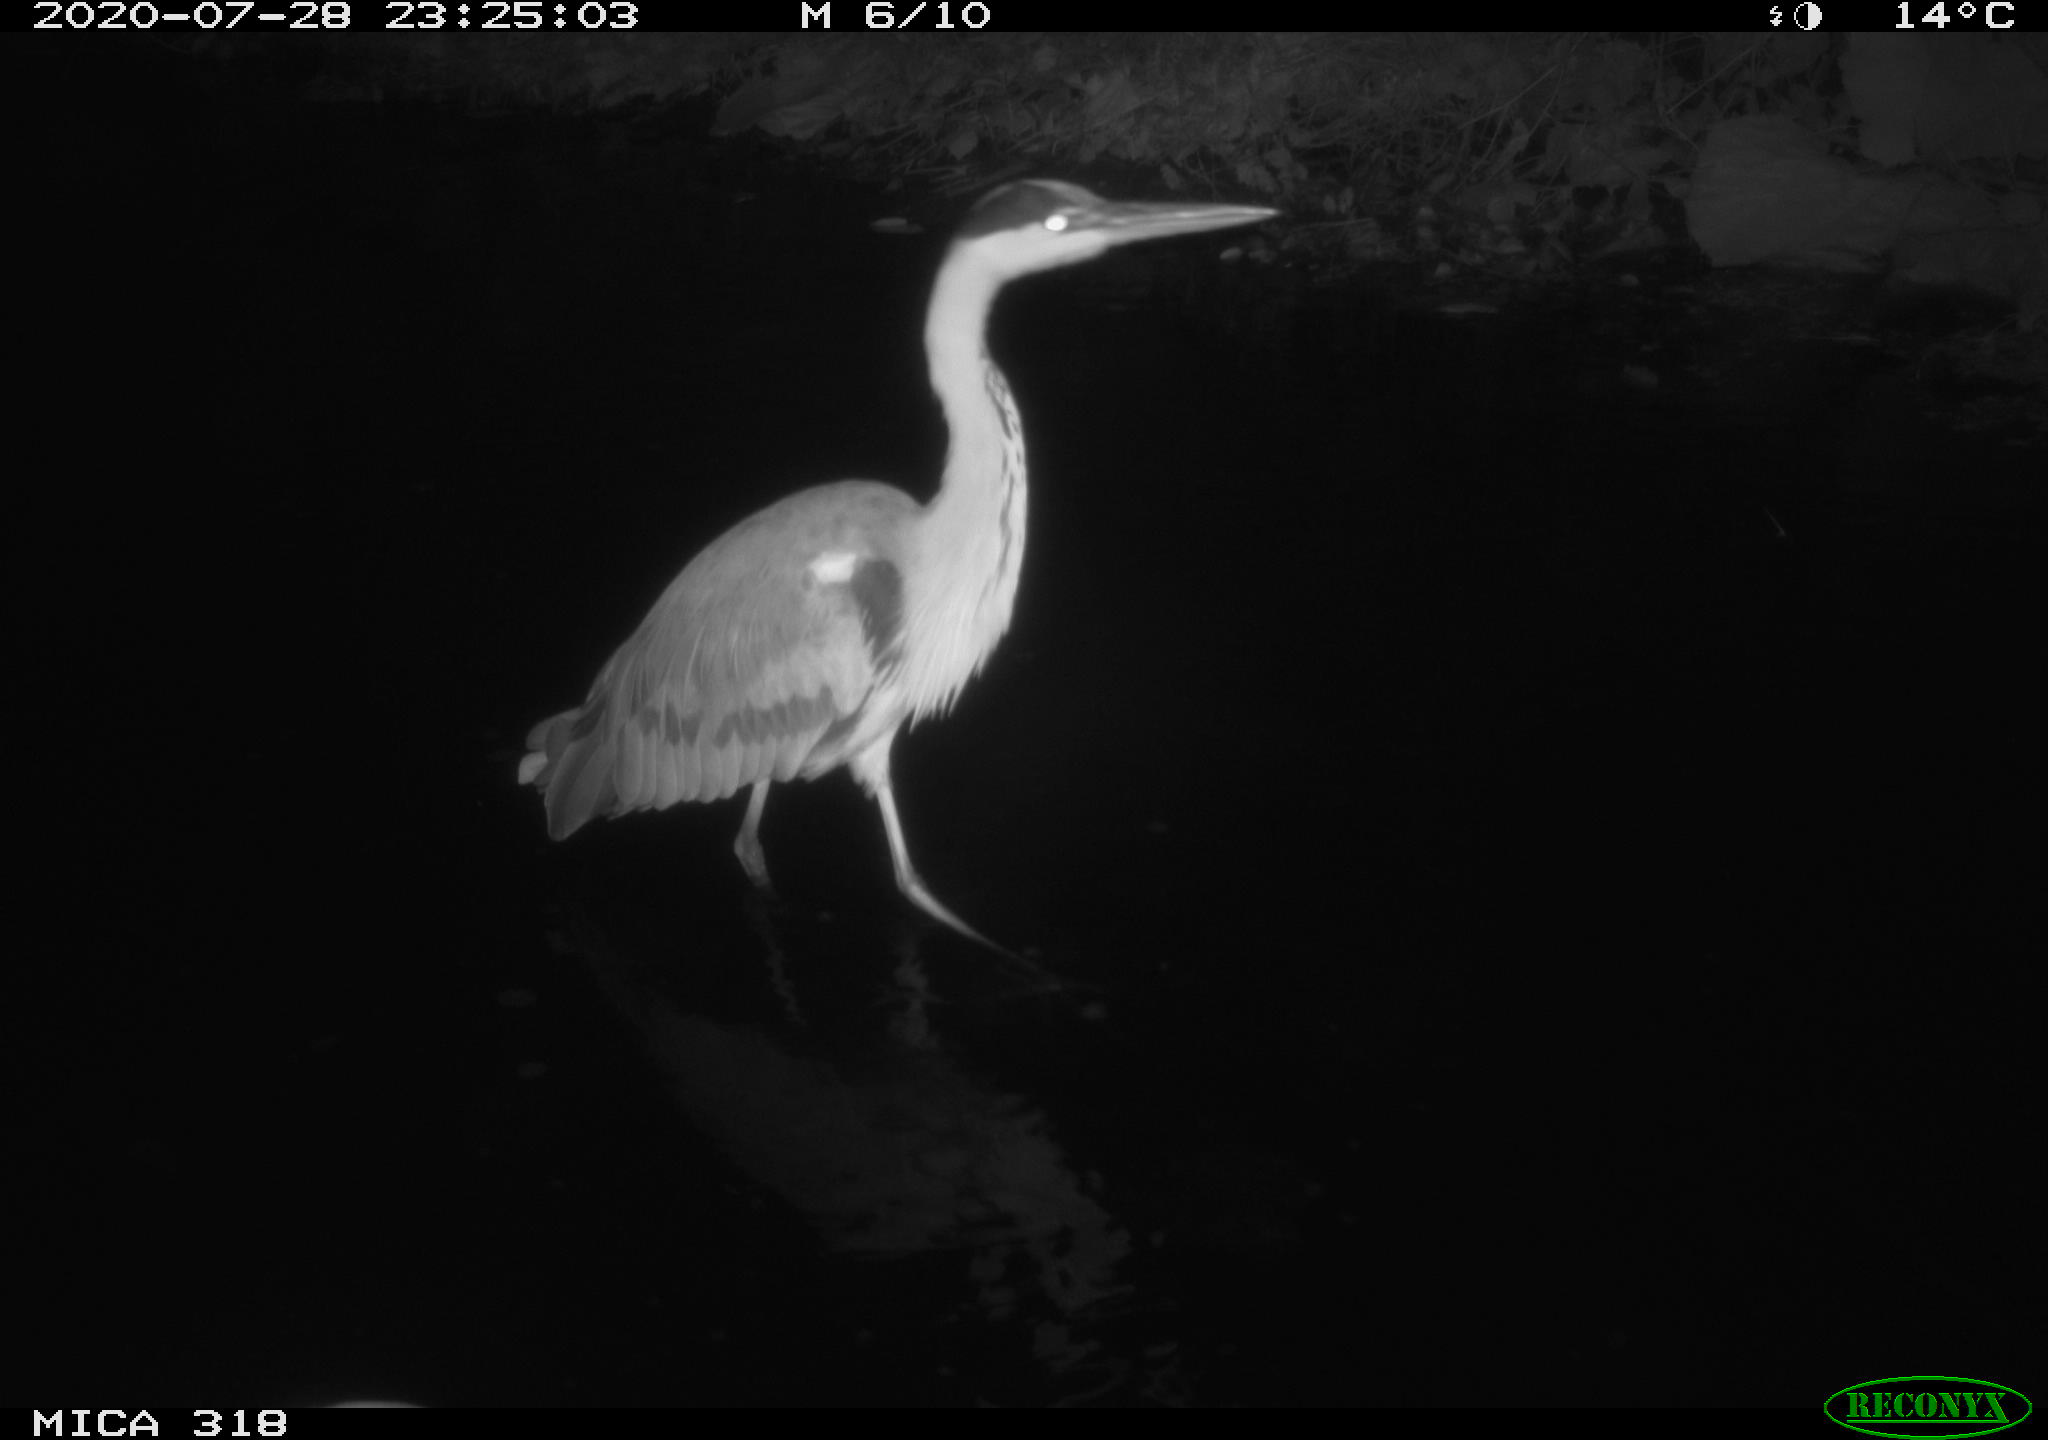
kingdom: Animalia
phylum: Chordata
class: Aves
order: Pelecaniformes
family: Ardeidae
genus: Ardea
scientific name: Ardea cinerea
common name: Grey heron
